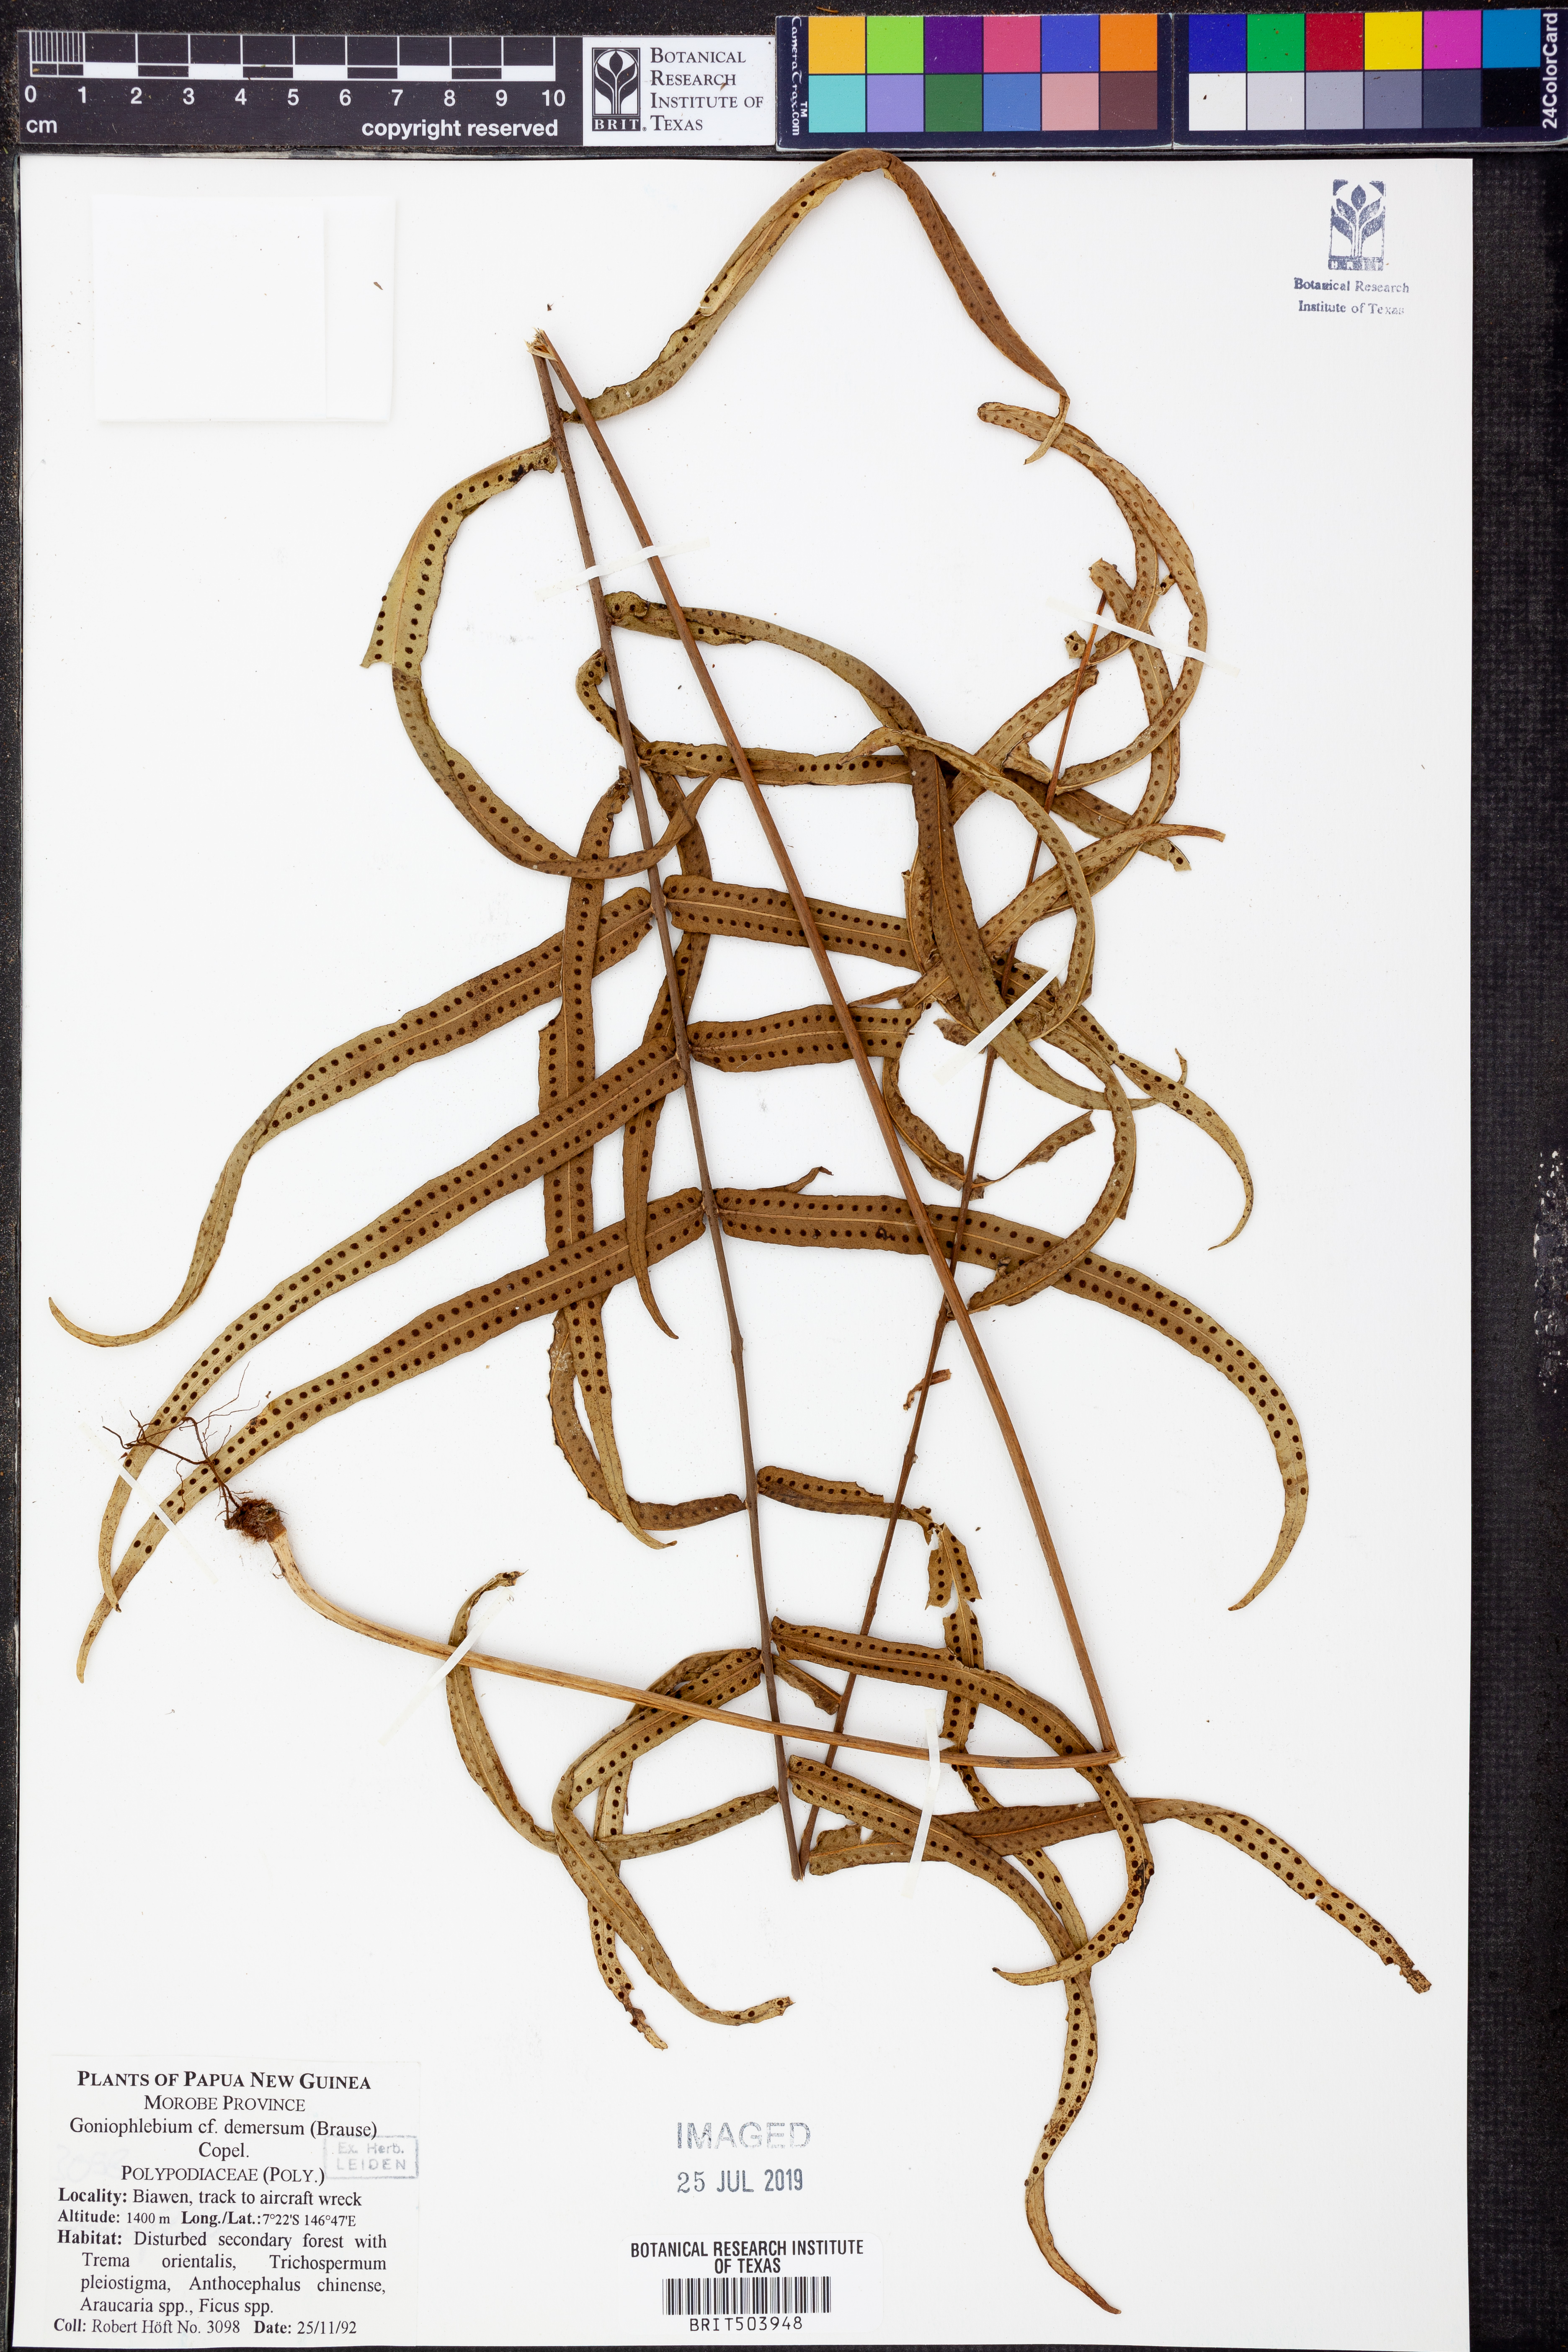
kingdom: Plantae
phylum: Tracheophyta
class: Polypodiopsida
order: Polypodiales
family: Polypodiaceae
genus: Goniophlebium
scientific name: Goniophlebium demersum
